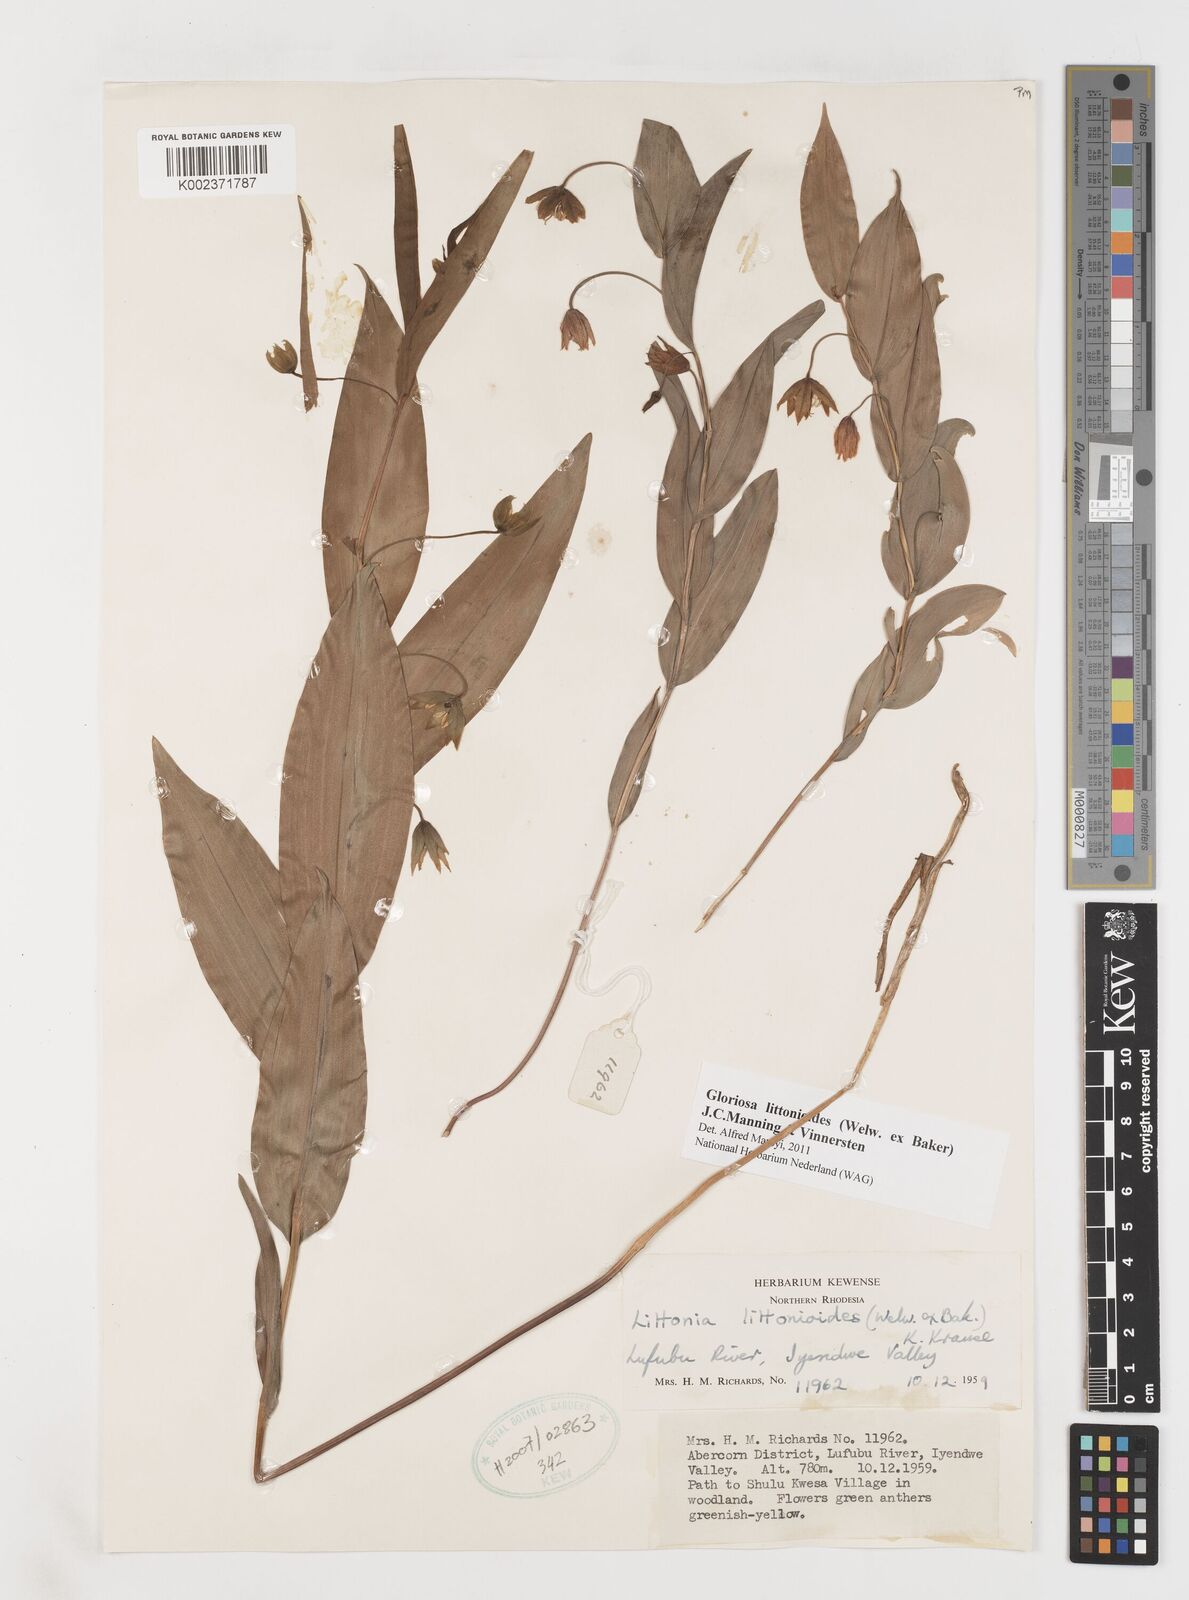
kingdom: Plantae
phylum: Tracheophyta
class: Liliopsida
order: Liliales
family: Colchicaceae
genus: Gloriosa
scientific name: Gloriosa littonioides
